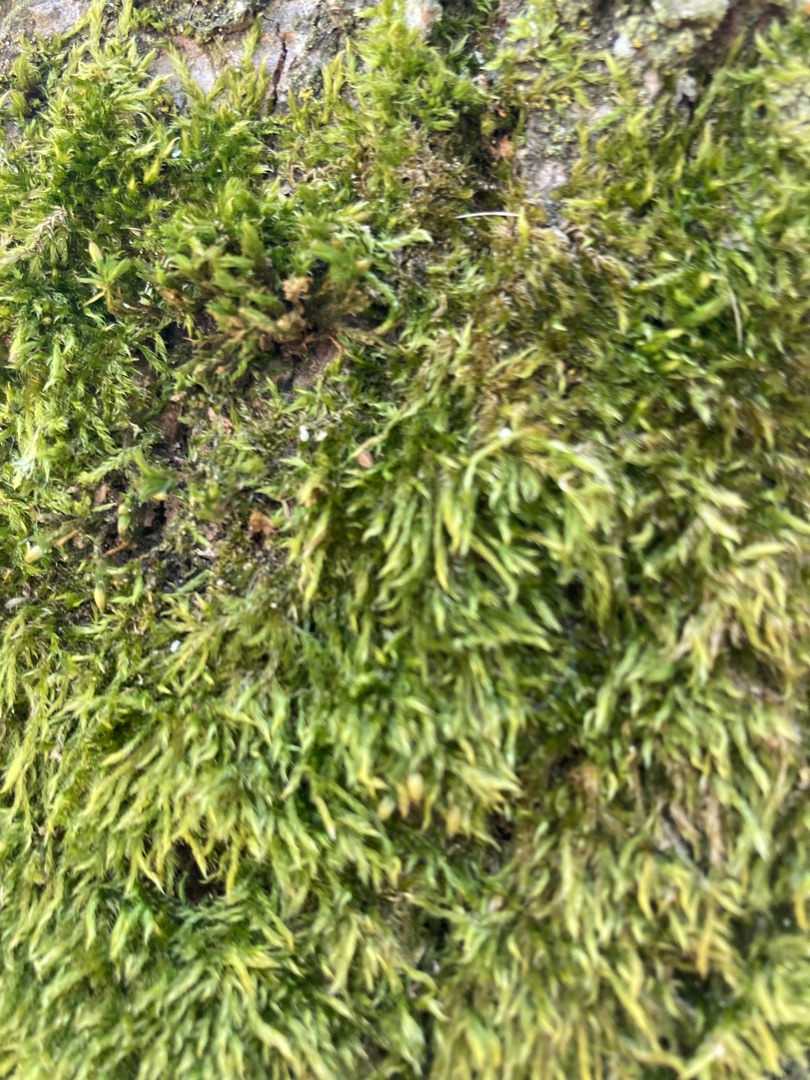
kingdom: Plantae
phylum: Bryophyta
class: Bryopsida
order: Hypnales
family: Hypnaceae
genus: Hypnum
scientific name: Hypnum
